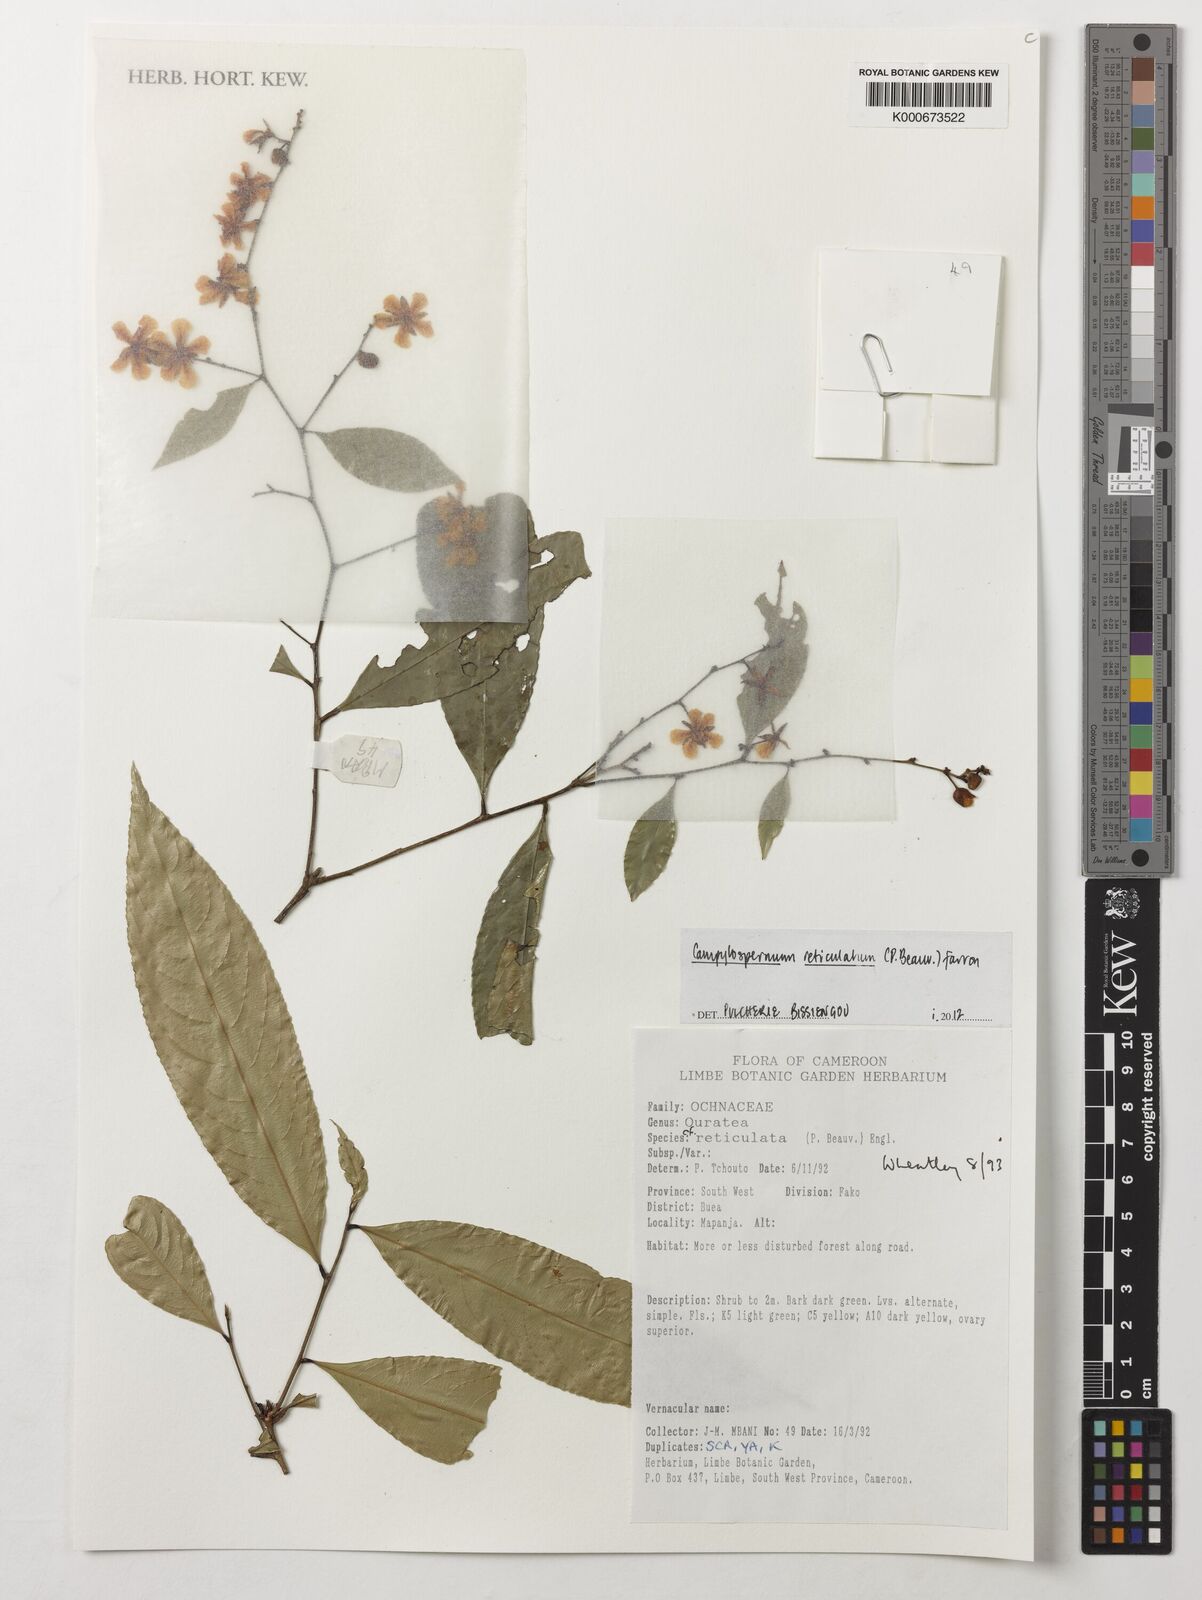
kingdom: Plantae
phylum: Tracheophyta
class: Magnoliopsida
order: Malpighiales
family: Ochnaceae
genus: Campylospermum
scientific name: Campylospermum reticulatum
